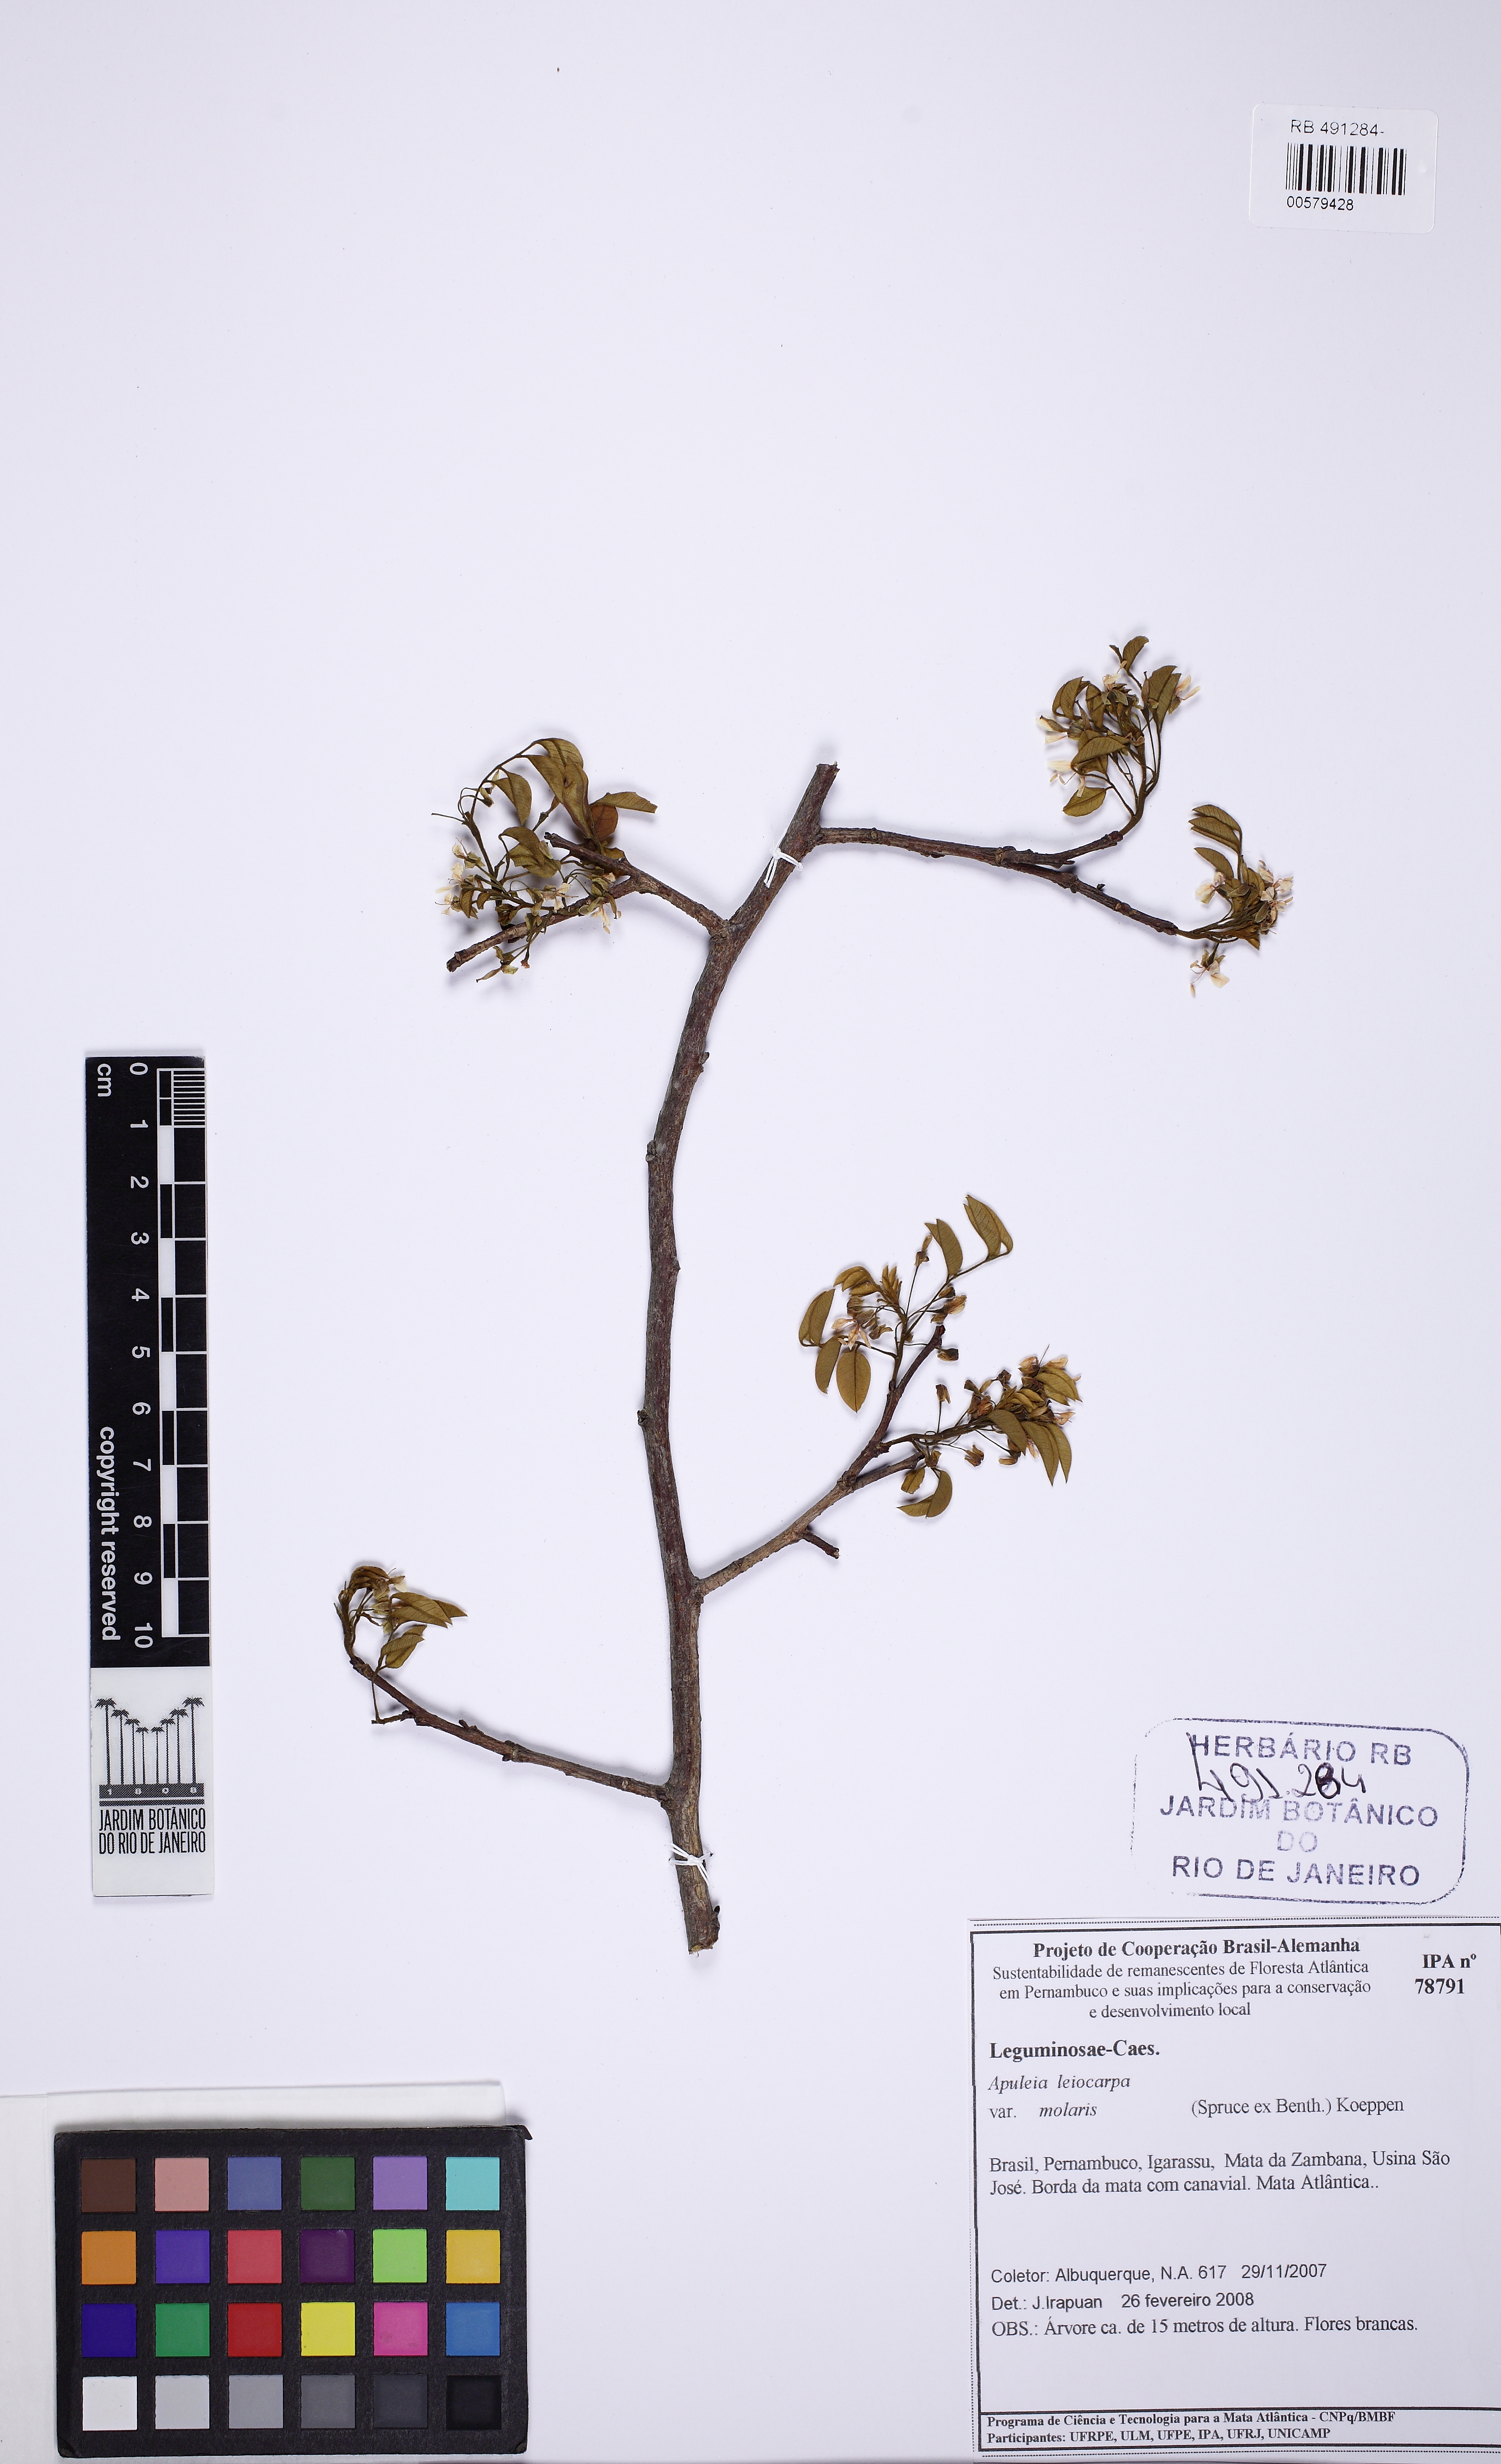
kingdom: Plantae
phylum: Tracheophyta
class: Magnoliopsida
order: Fabales
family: Fabaceae
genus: Apuleia
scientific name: Apuleia leiocarpa
